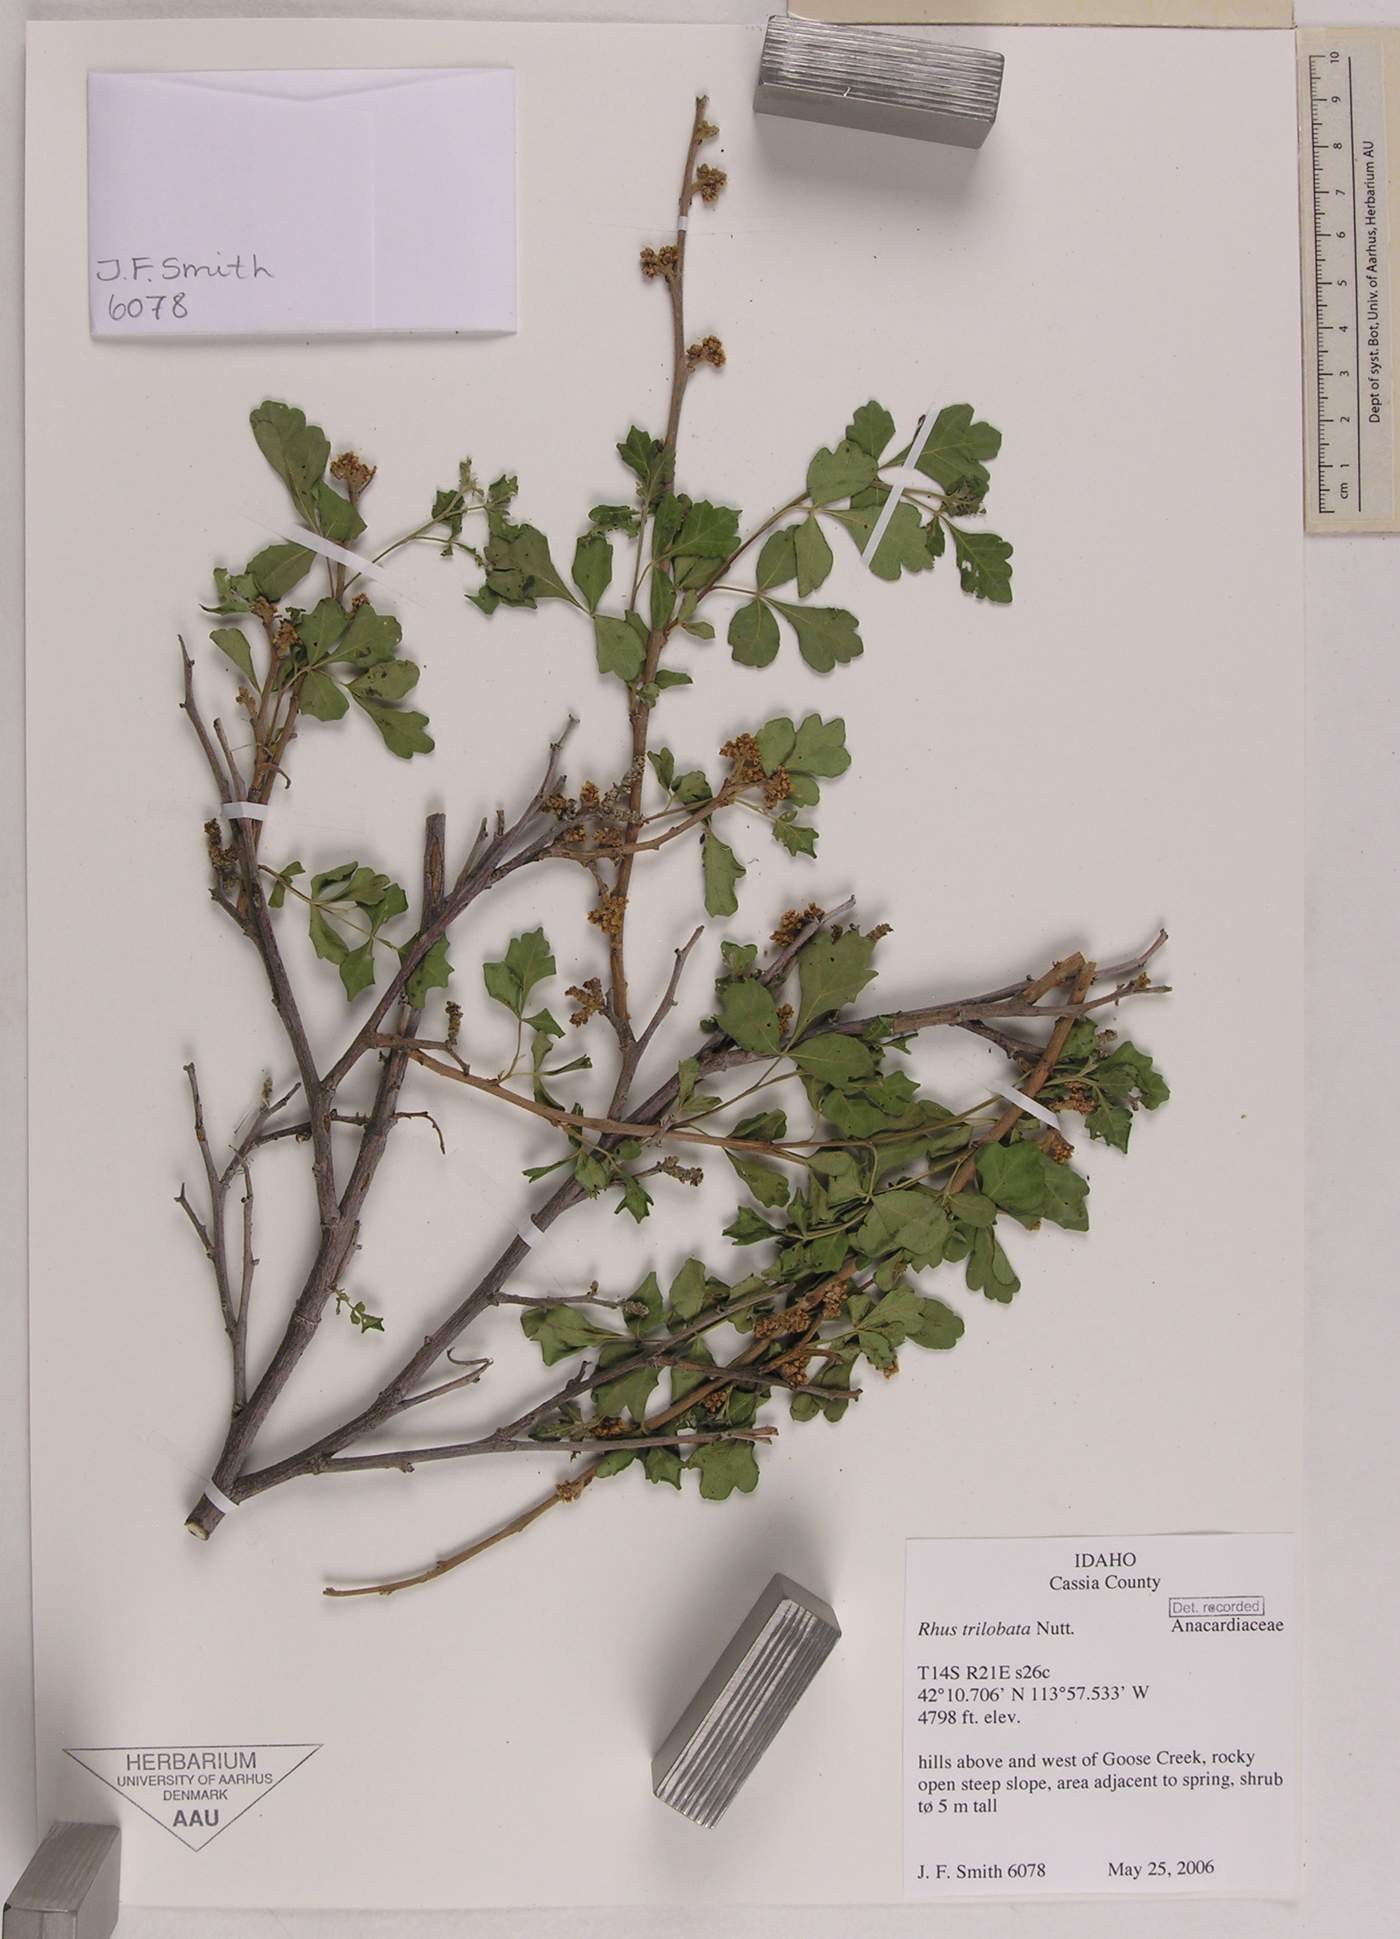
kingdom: Plantae
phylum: Tracheophyta
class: Magnoliopsida
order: Sapindales
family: Anacardiaceae
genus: Rhus
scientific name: Rhus trilobata
